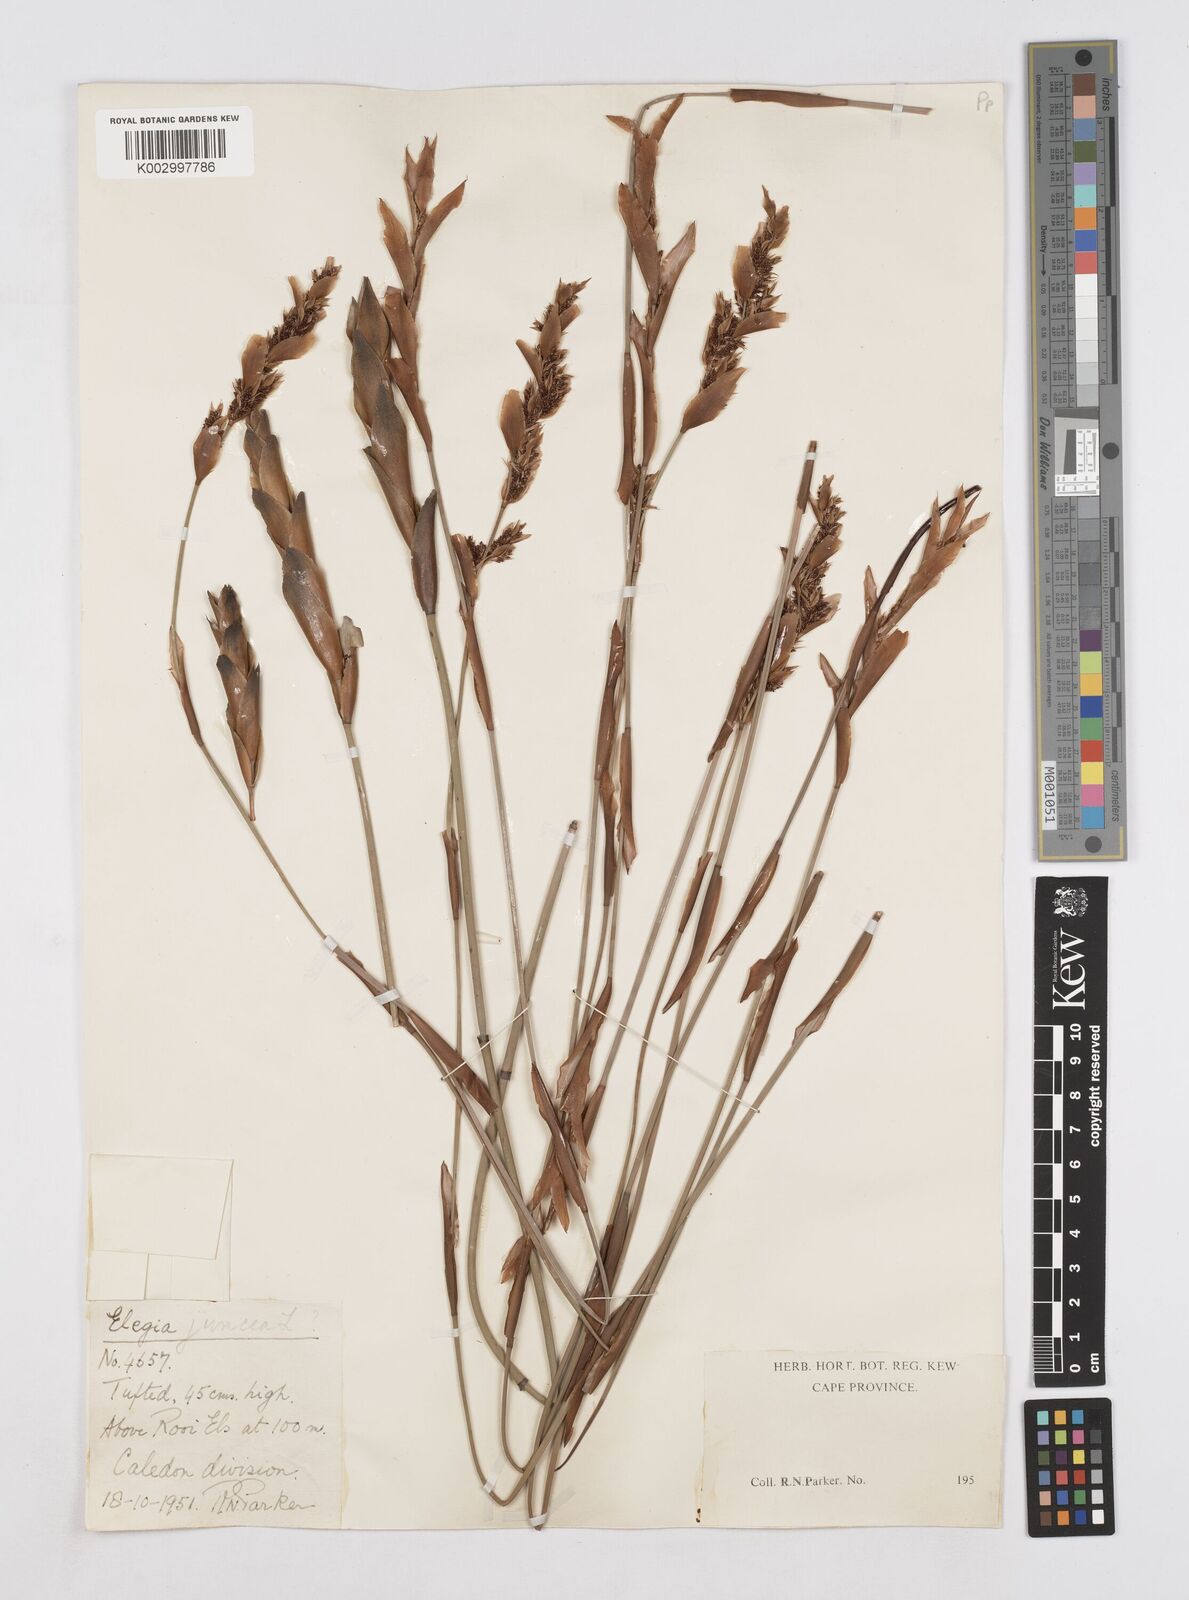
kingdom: Plantae
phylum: Tracheophyta
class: Liliopsida
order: Poales
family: Restionaceae
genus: Elegia
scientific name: Elegia juncea
